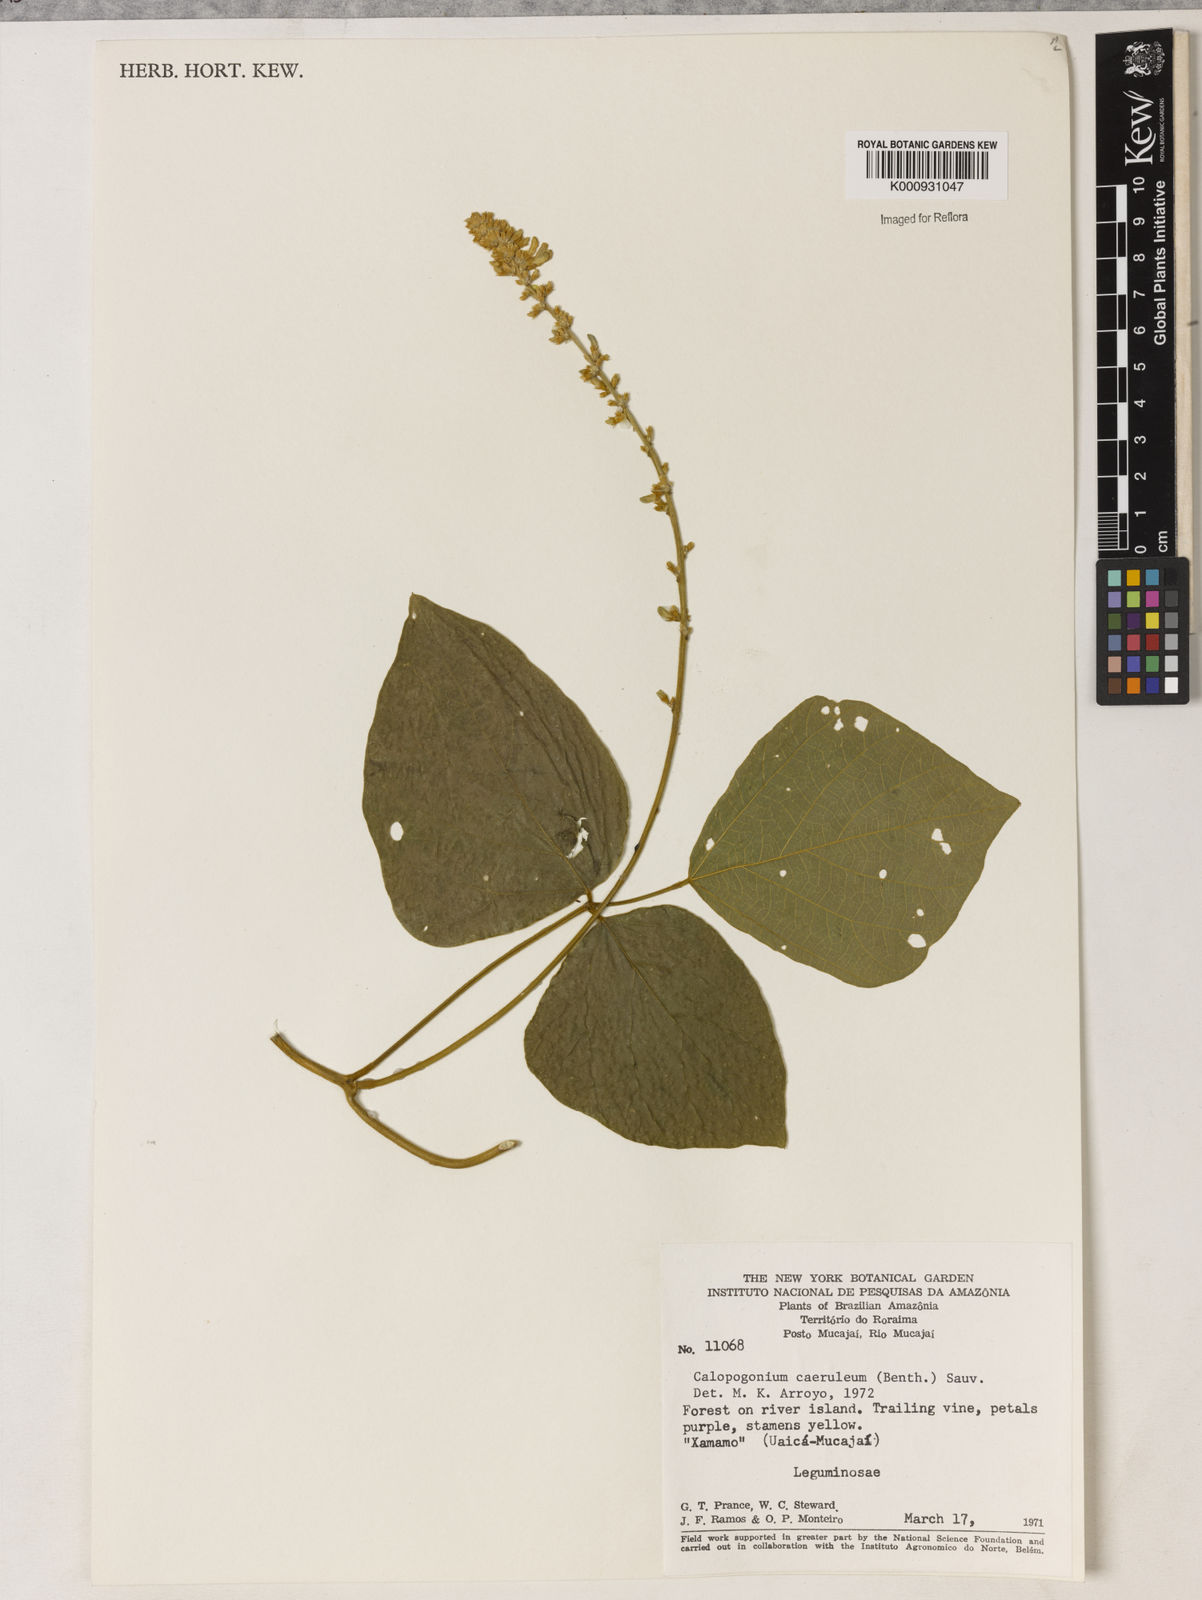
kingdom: Plantae
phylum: Tracheophyta
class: Magnoliopsida
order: Fabales
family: Fabaceae
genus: Calopogonium
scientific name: Calopogonium caeruleum
